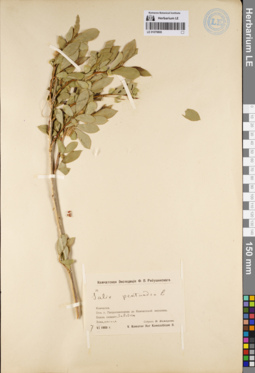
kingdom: Plantae
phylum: Tracheophyta
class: Magnoliopsida
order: Malpighiales
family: Salicaceae
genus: Salix
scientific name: Salix pseudopentandra
